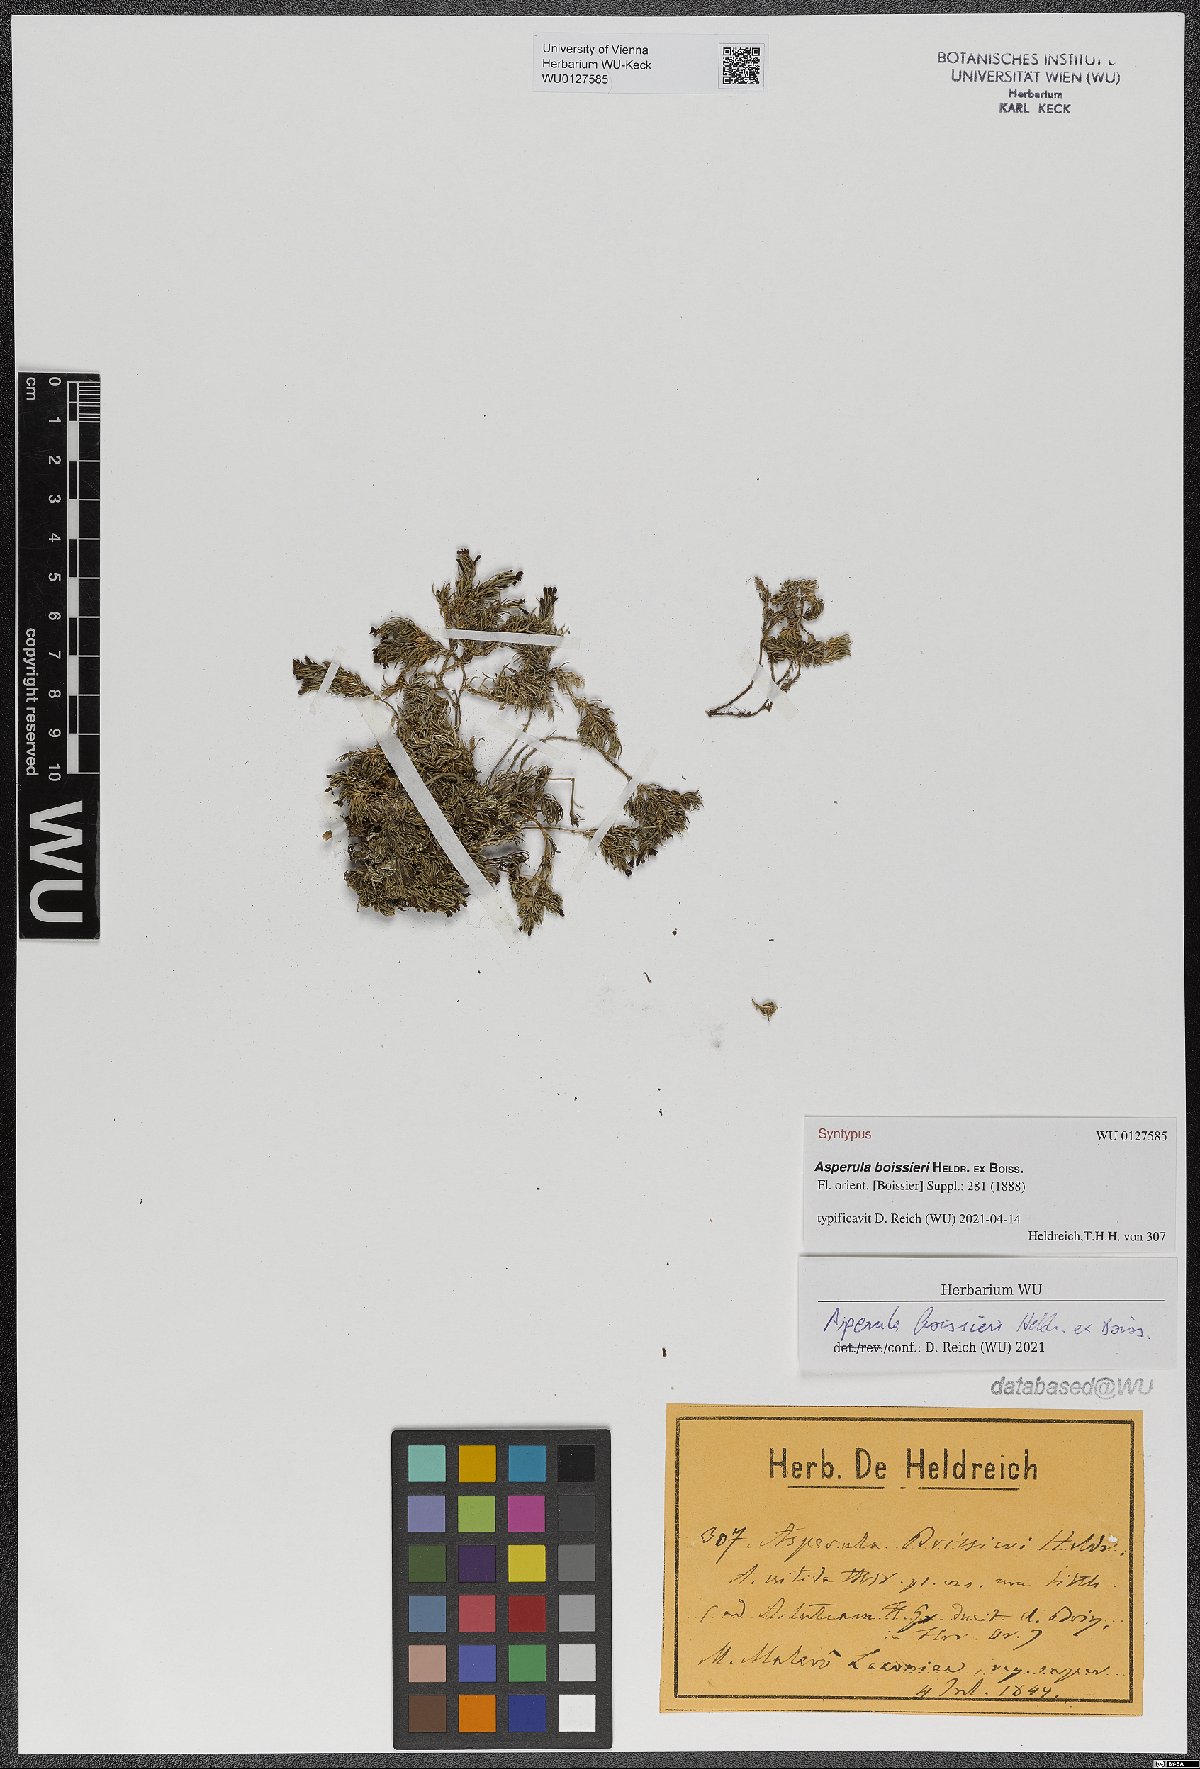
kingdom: Plantae
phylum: Tracheophyta
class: Magnoliopsida
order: Gentianales
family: Rubiaceae
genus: Cynanchica
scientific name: Cynanchica boissieri
